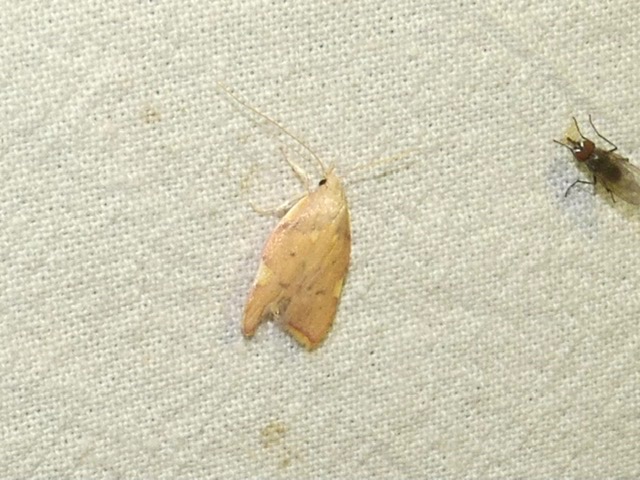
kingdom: Animalia
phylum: Arthropoda
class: Insecta
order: Lepidoptera
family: Peleopodidae
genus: Carcina
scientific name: Carcina quercana
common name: Egeprydvinge
